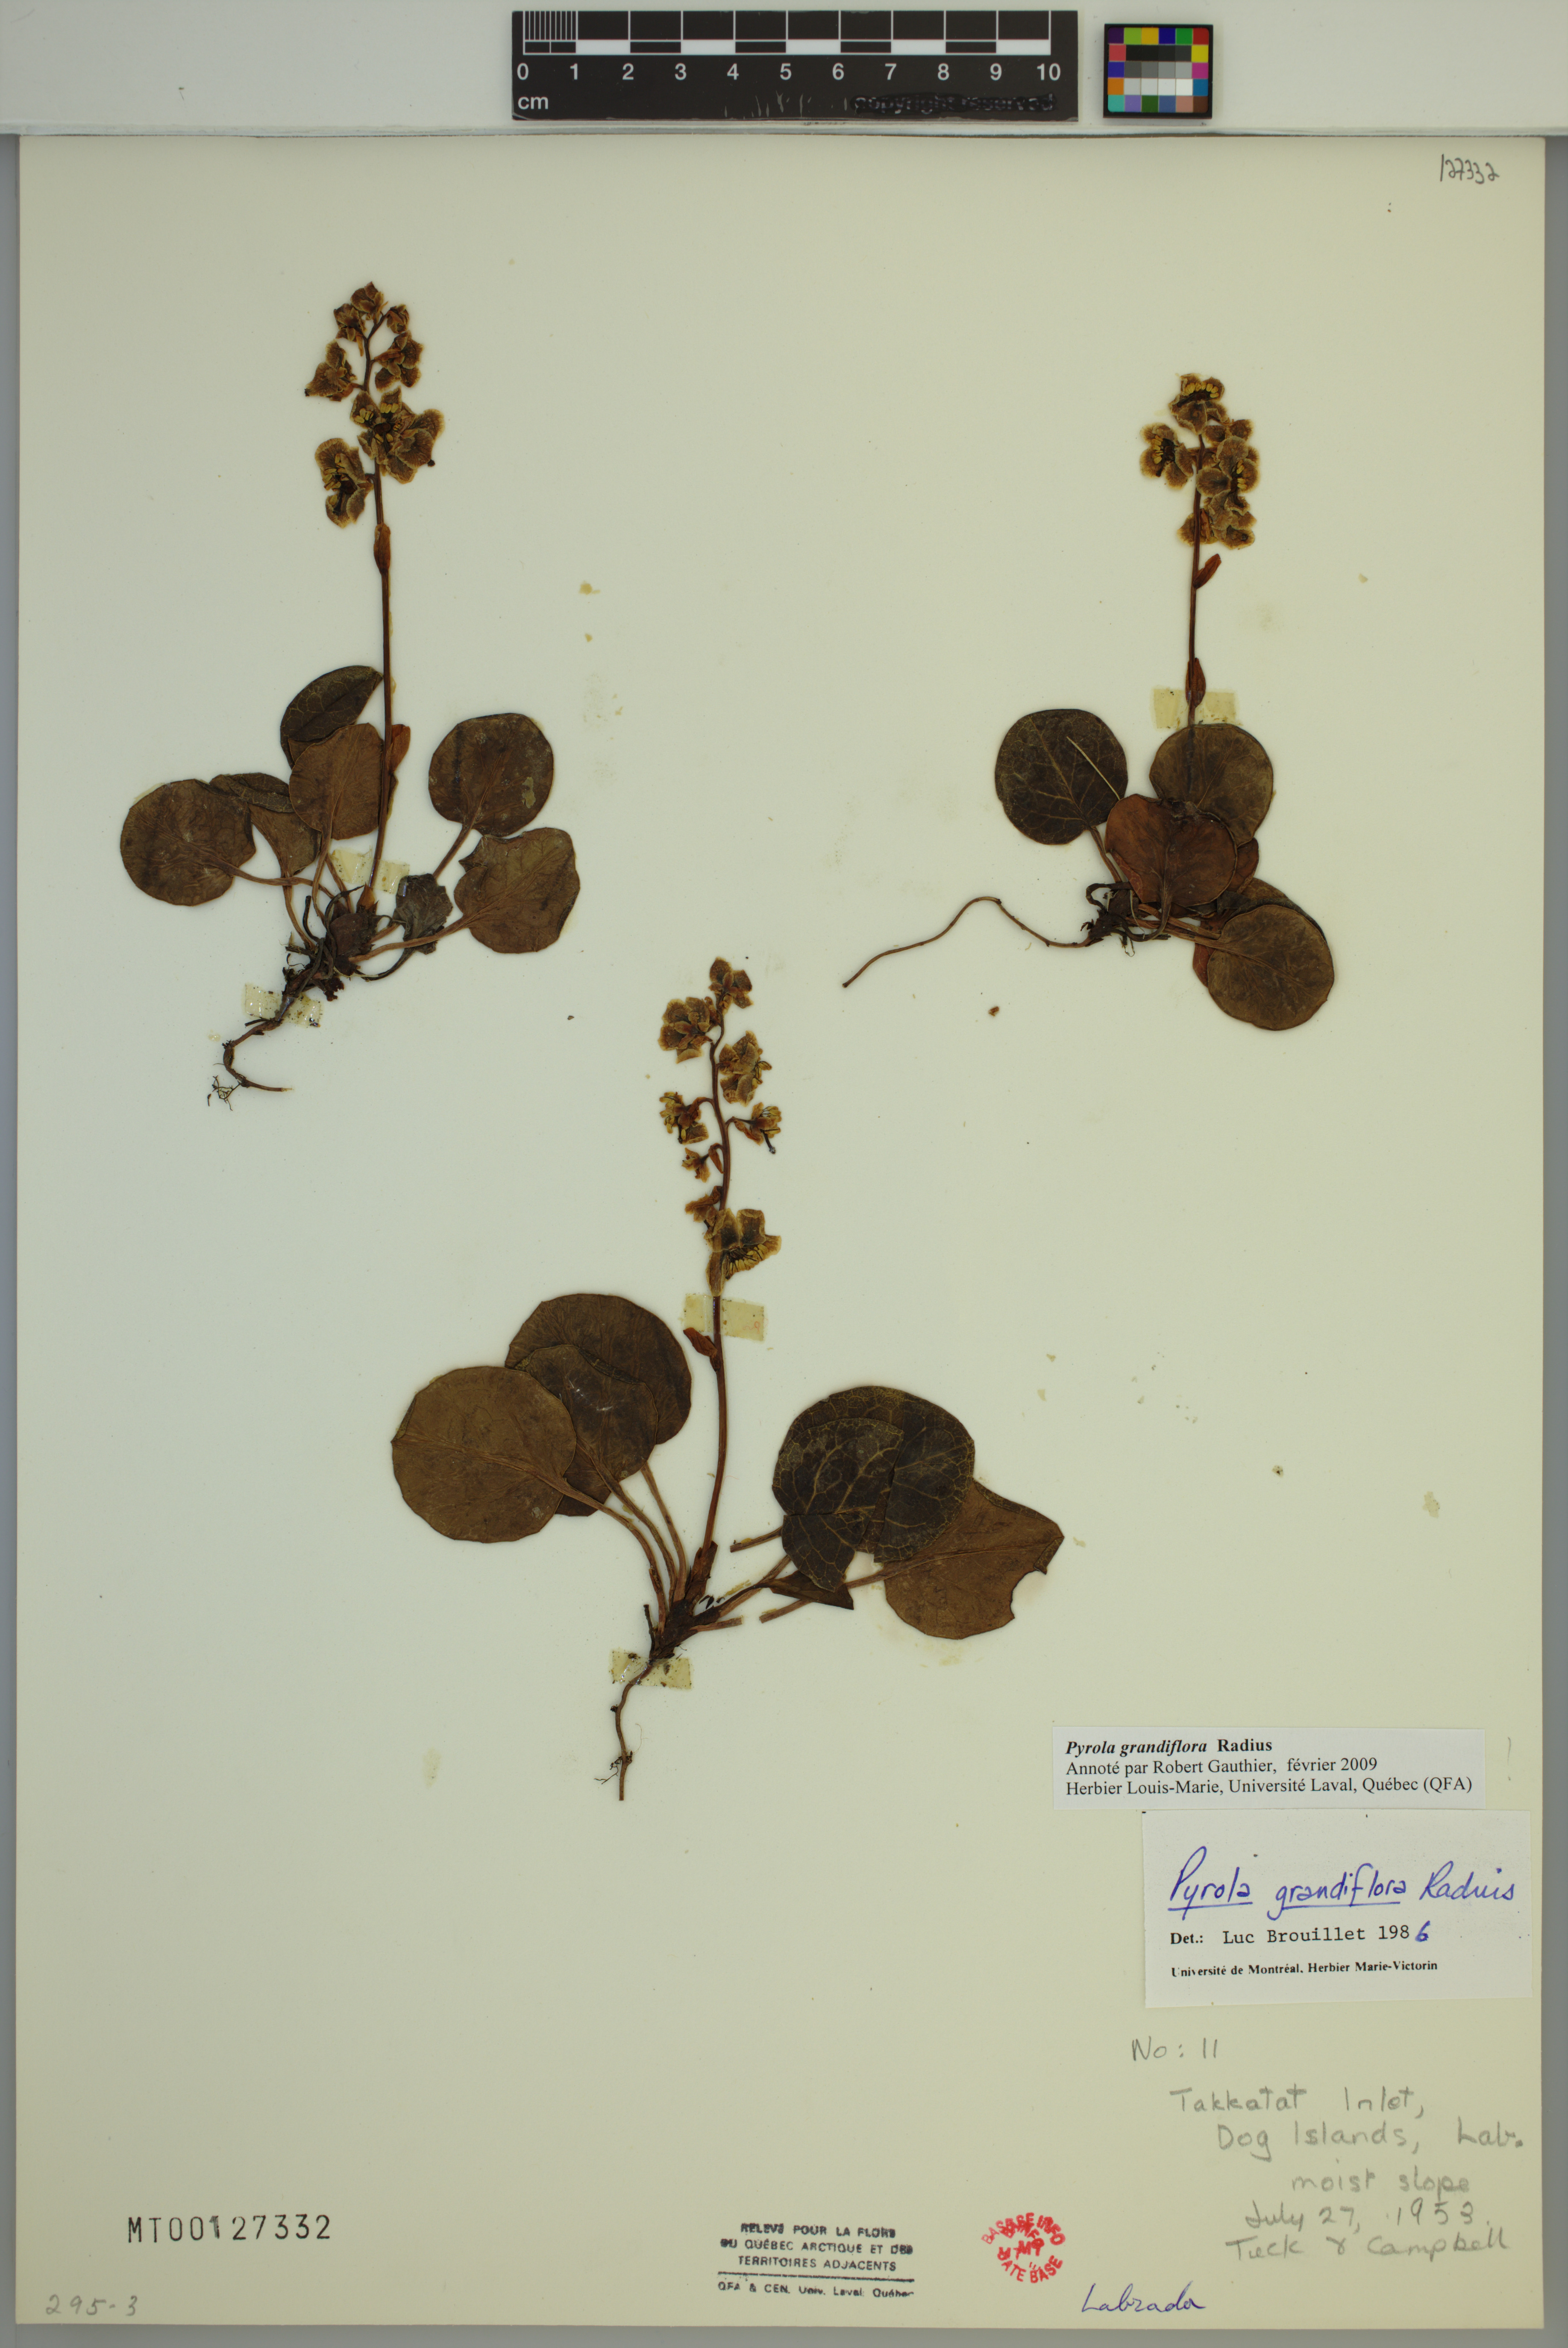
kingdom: Plantae
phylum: Tracheophyta
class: Magnoliopsida
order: Ericales
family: Ericaceae
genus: Pyrola
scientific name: Pyrola grandiflora
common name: Arctic pyrola
